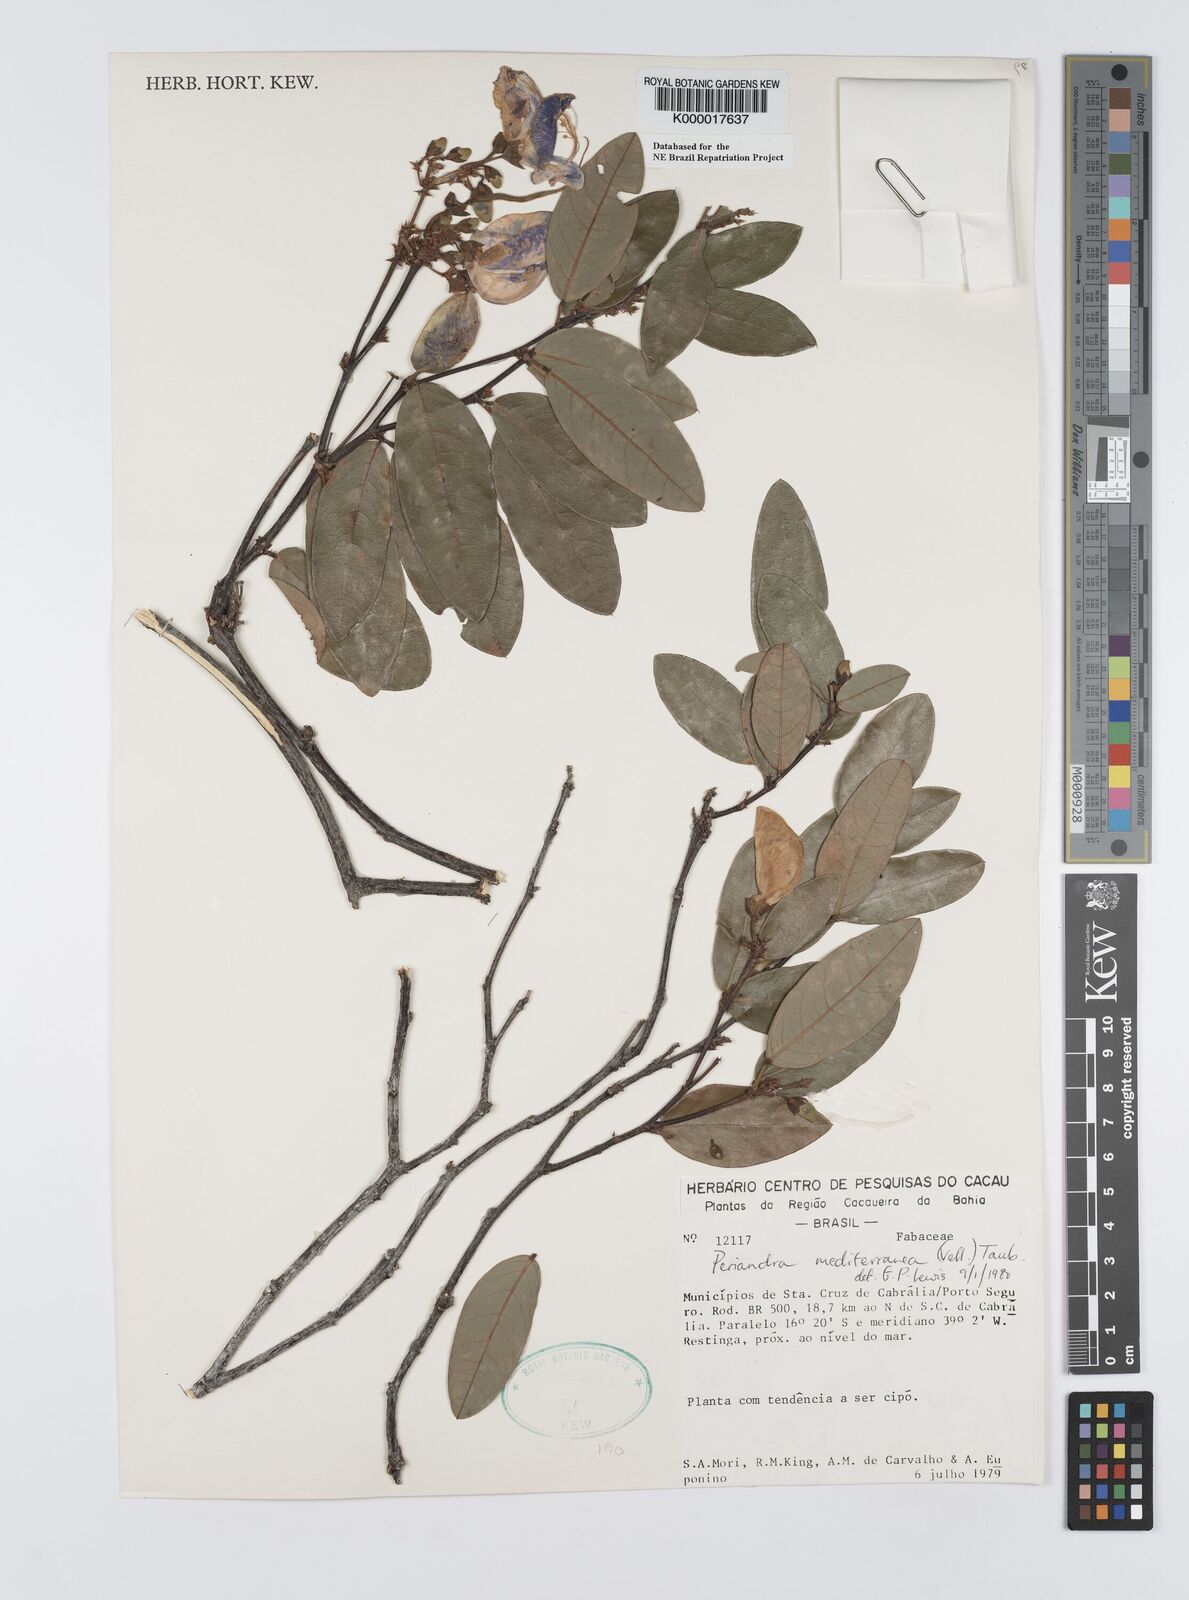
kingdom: Plantae
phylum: Tracheophyta
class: Magnoliopsida
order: Fabales
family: Fabaceae
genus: Periandra
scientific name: Periandra mediterranea
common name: Brazilian licorice
